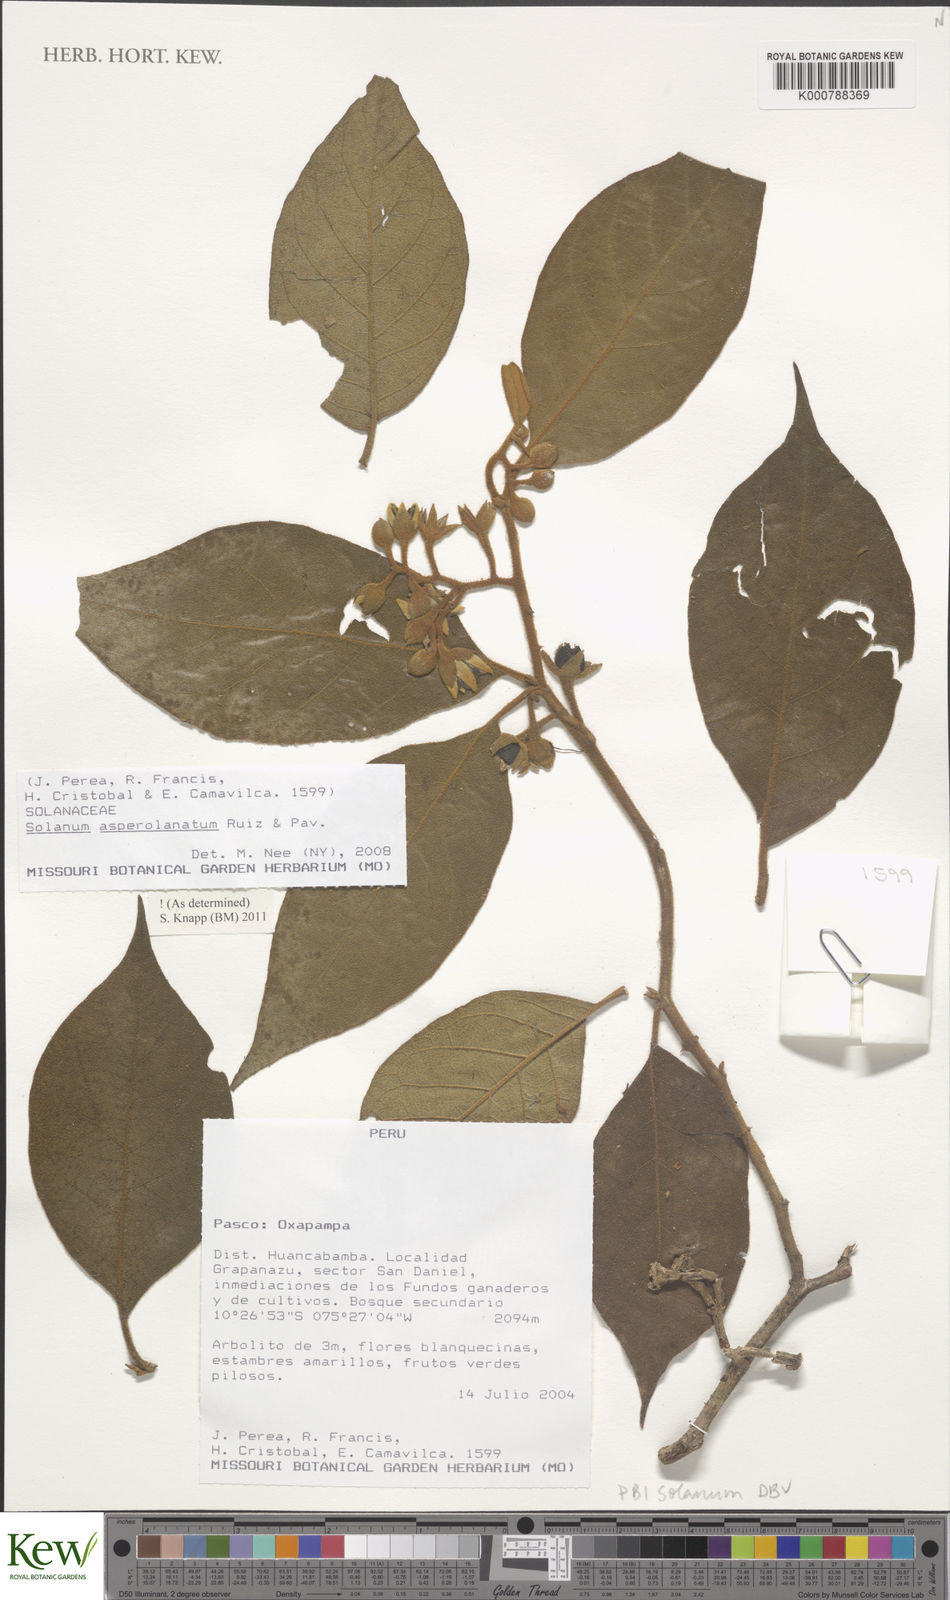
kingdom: Plantae
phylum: Tracheophyta
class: Magnoliopsida
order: Solanales
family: Solanaceae
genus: Solanum
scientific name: Solanum asperolanatum
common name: Devil's-fig
